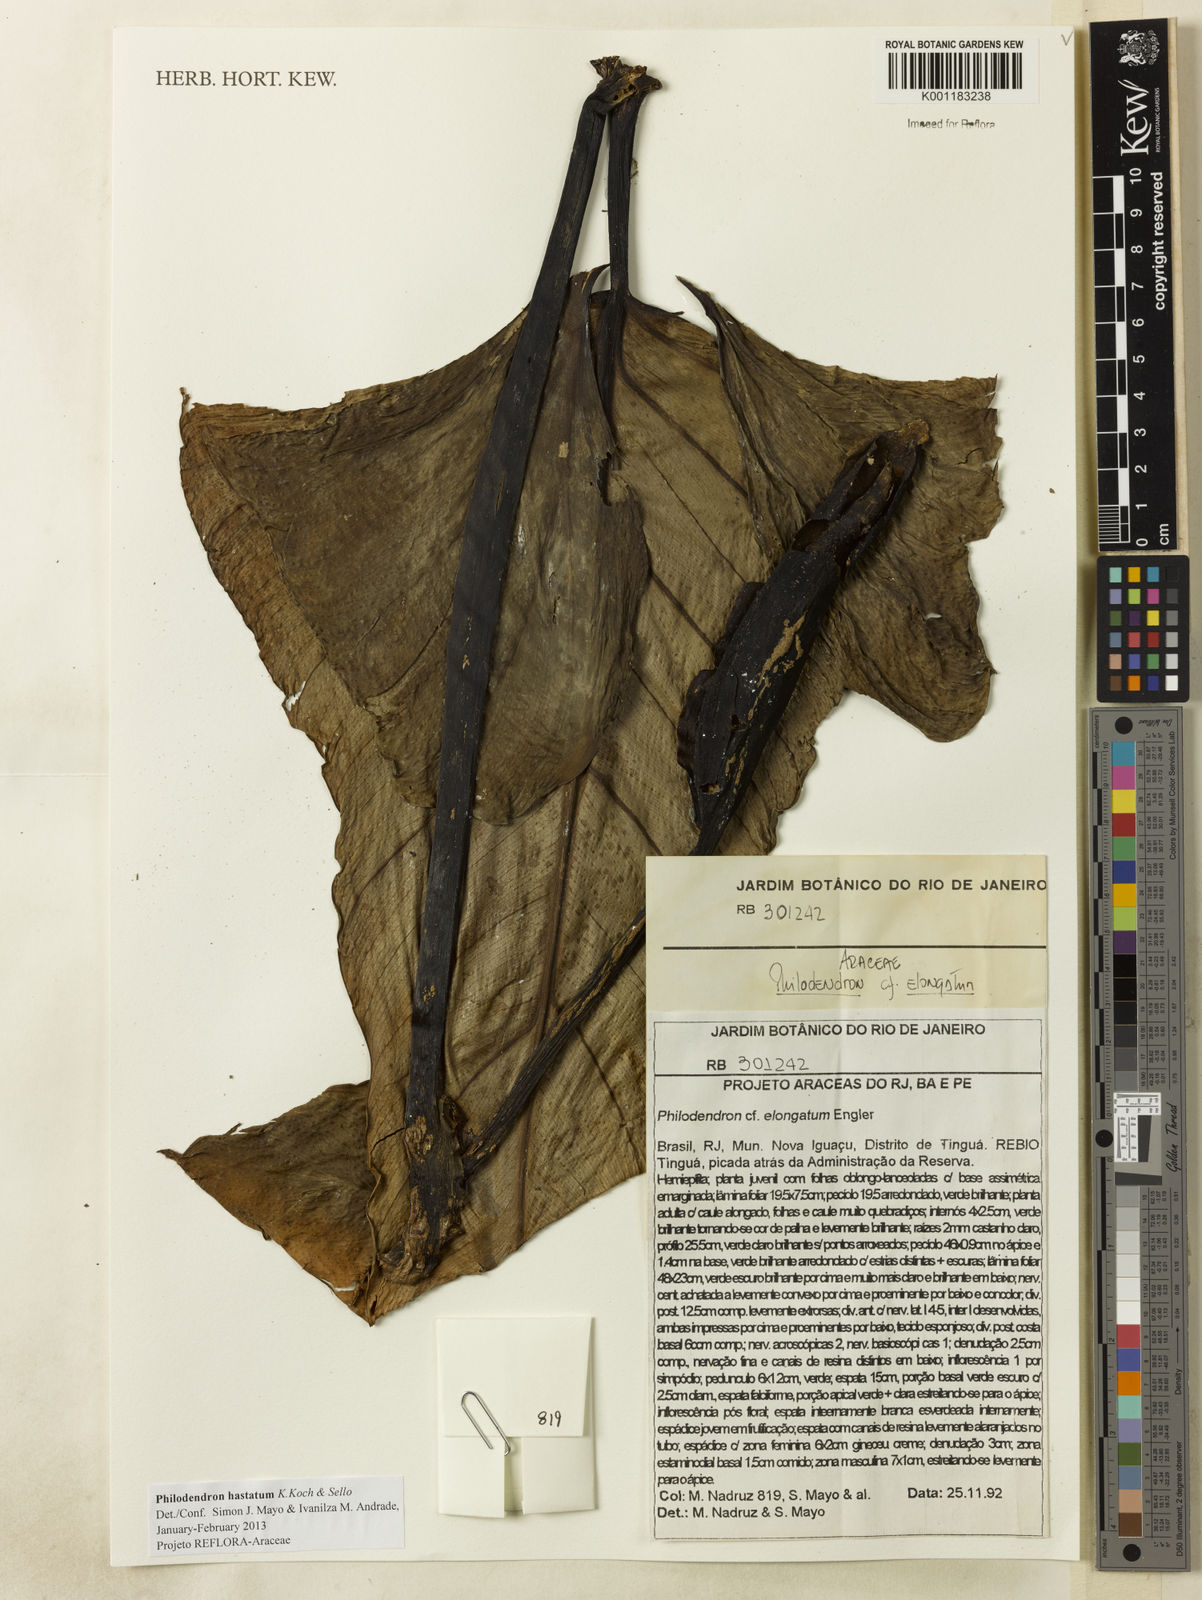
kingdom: Plantae
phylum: Tracheophyta
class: Liliopsida
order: Alismatales
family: Araceae
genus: Philodendron
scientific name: Philodendron hastatum
